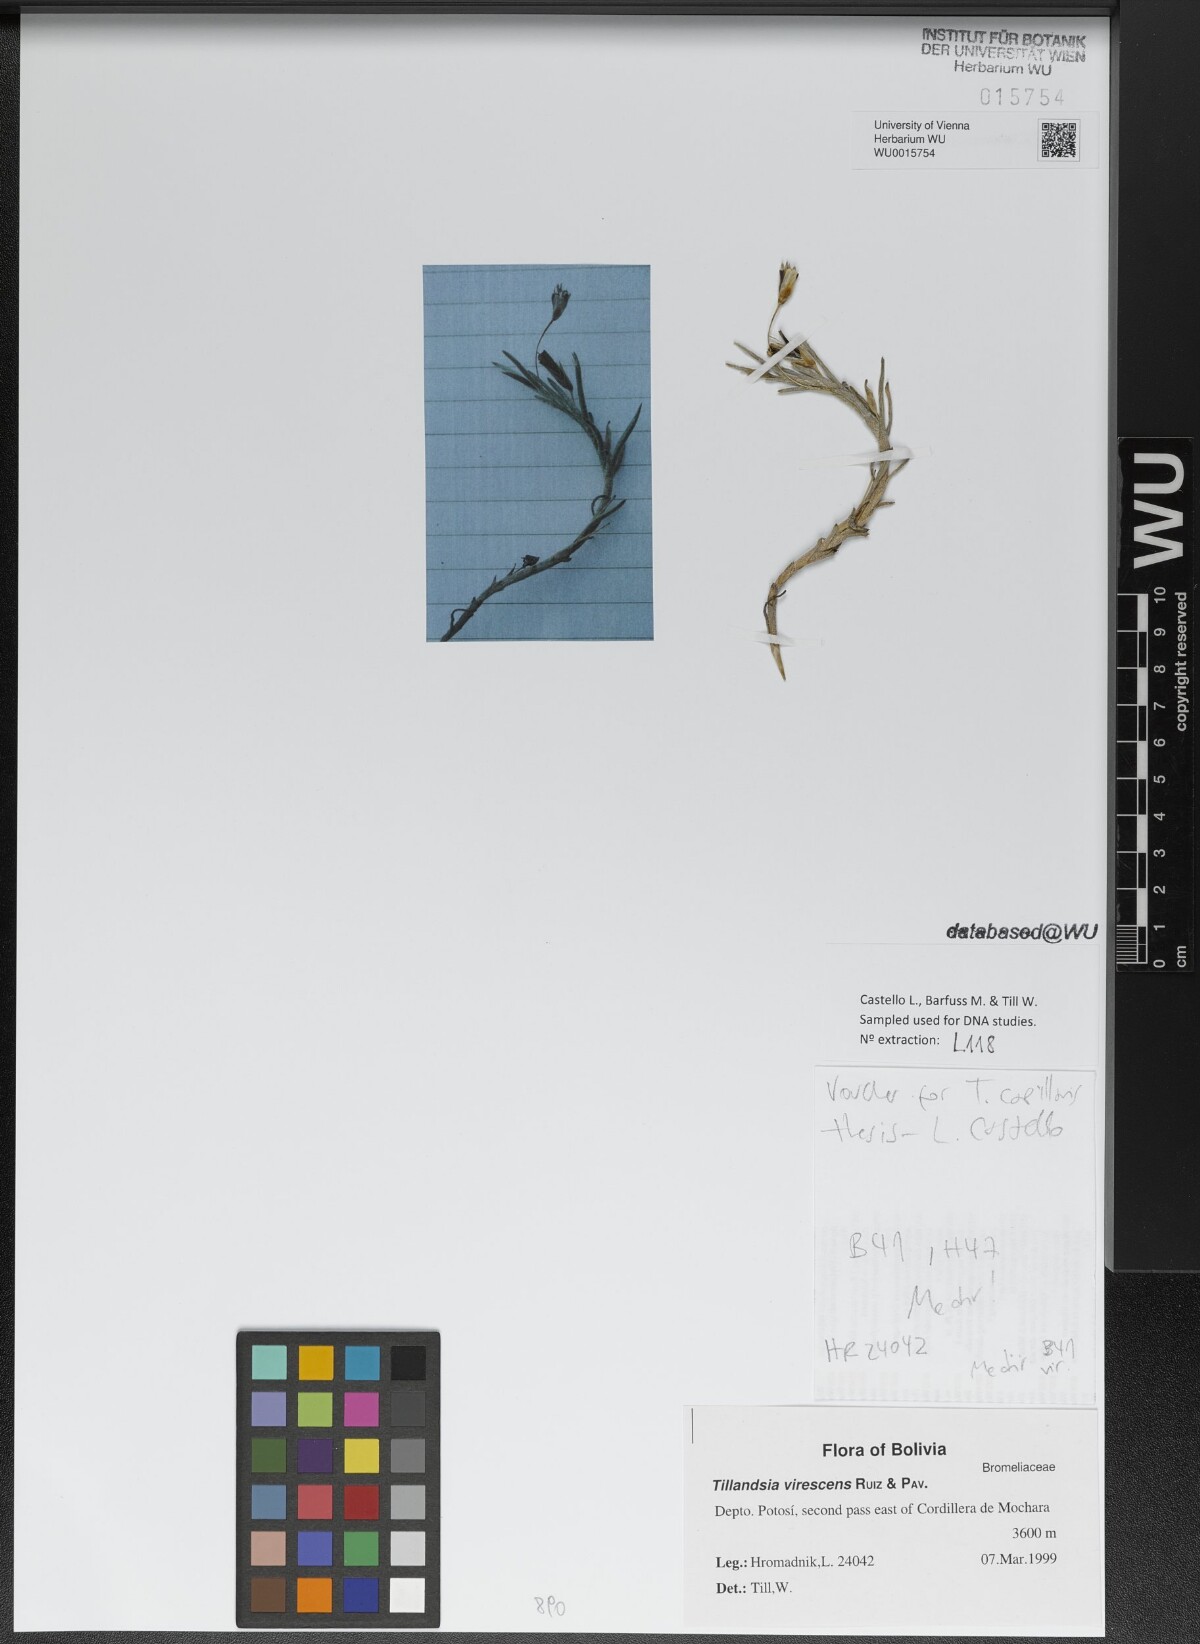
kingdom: Plantae
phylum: Tracheophyta
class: Liliopsida
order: Poales
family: Bromeliaceae
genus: Tillandsia
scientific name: Tillandsia virescens
